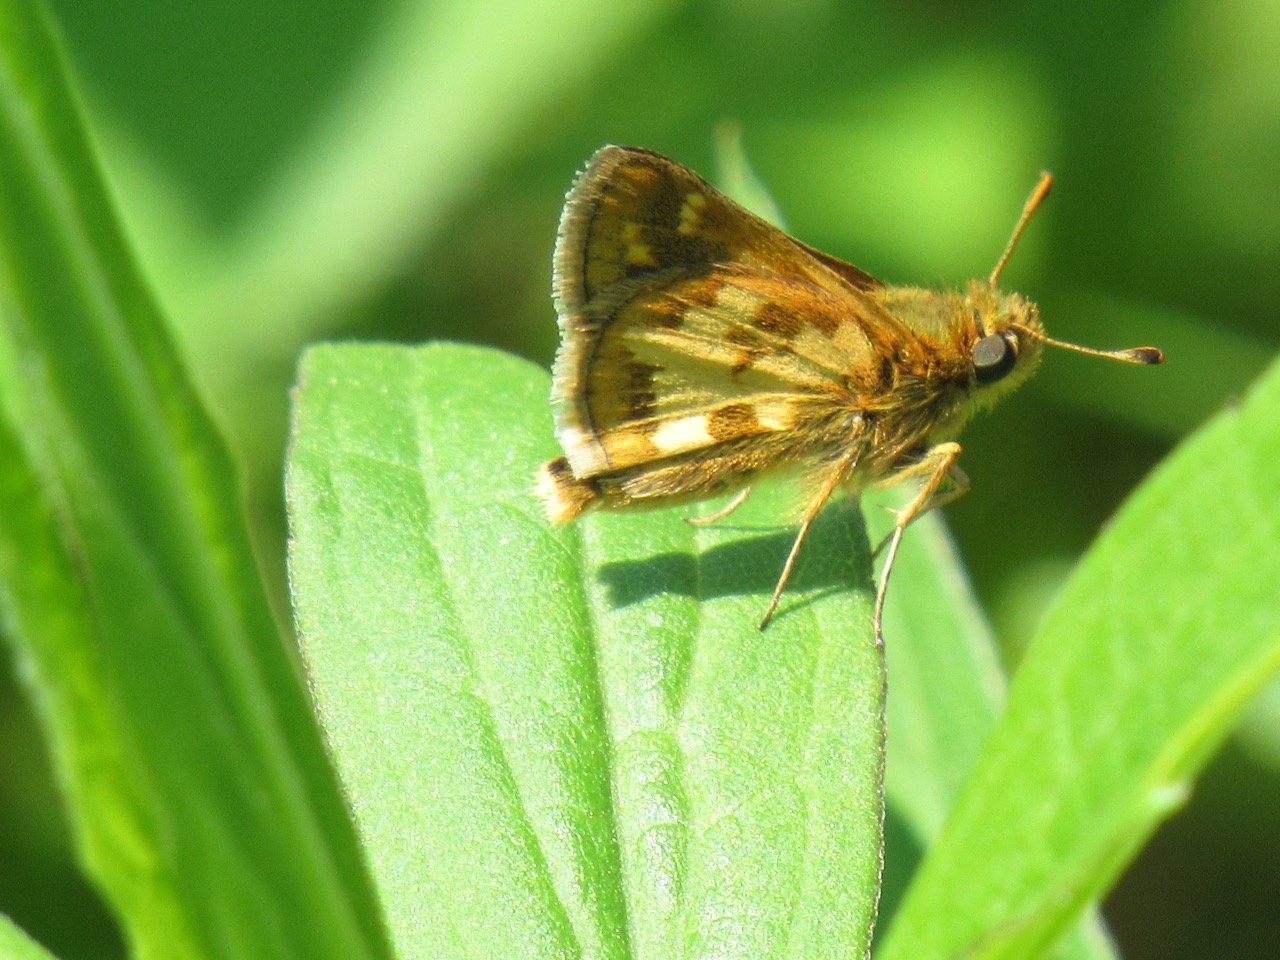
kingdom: Animalia
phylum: Arthropoda
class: Insecta
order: Lepidoptera
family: Hesperiidae
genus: Polites
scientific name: Polites coras
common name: Peck's Skipper
